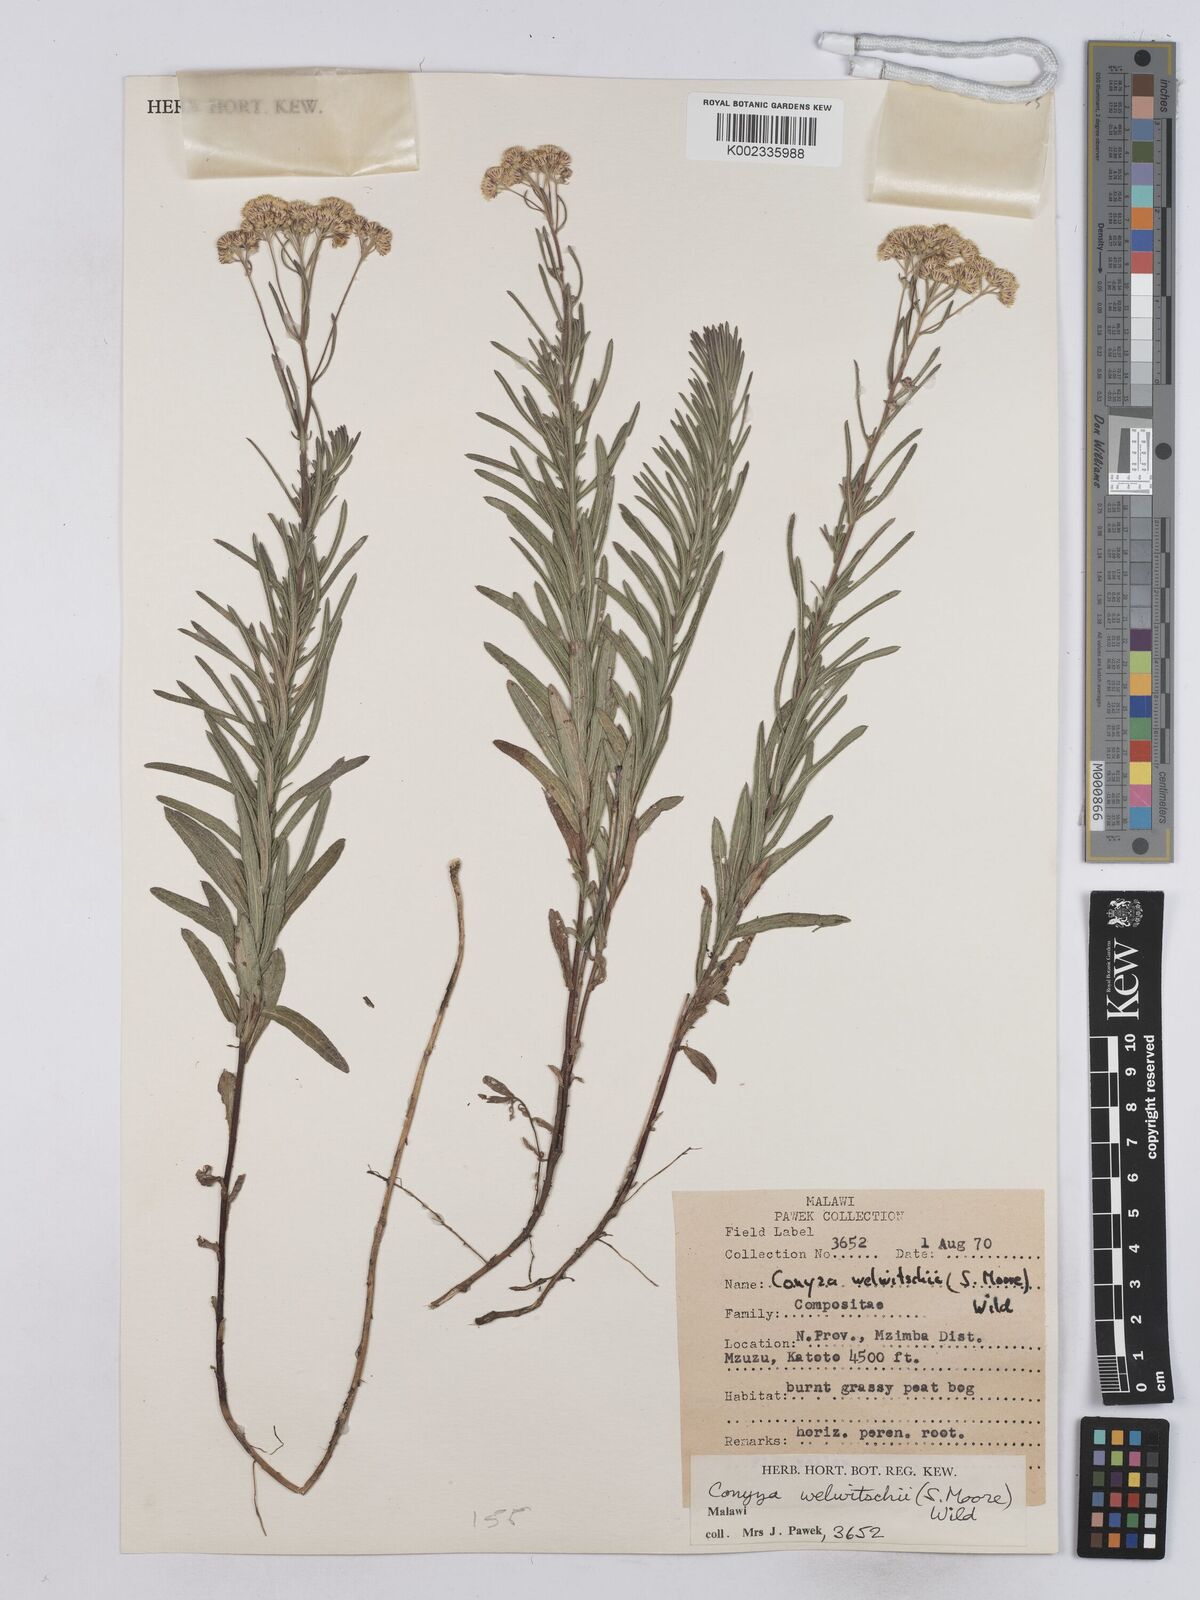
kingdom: Plantae
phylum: Tracheophyta
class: Magnoliopsida
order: Asterales
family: Asteraceae
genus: Nidorella
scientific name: Nidorella welwitschii
